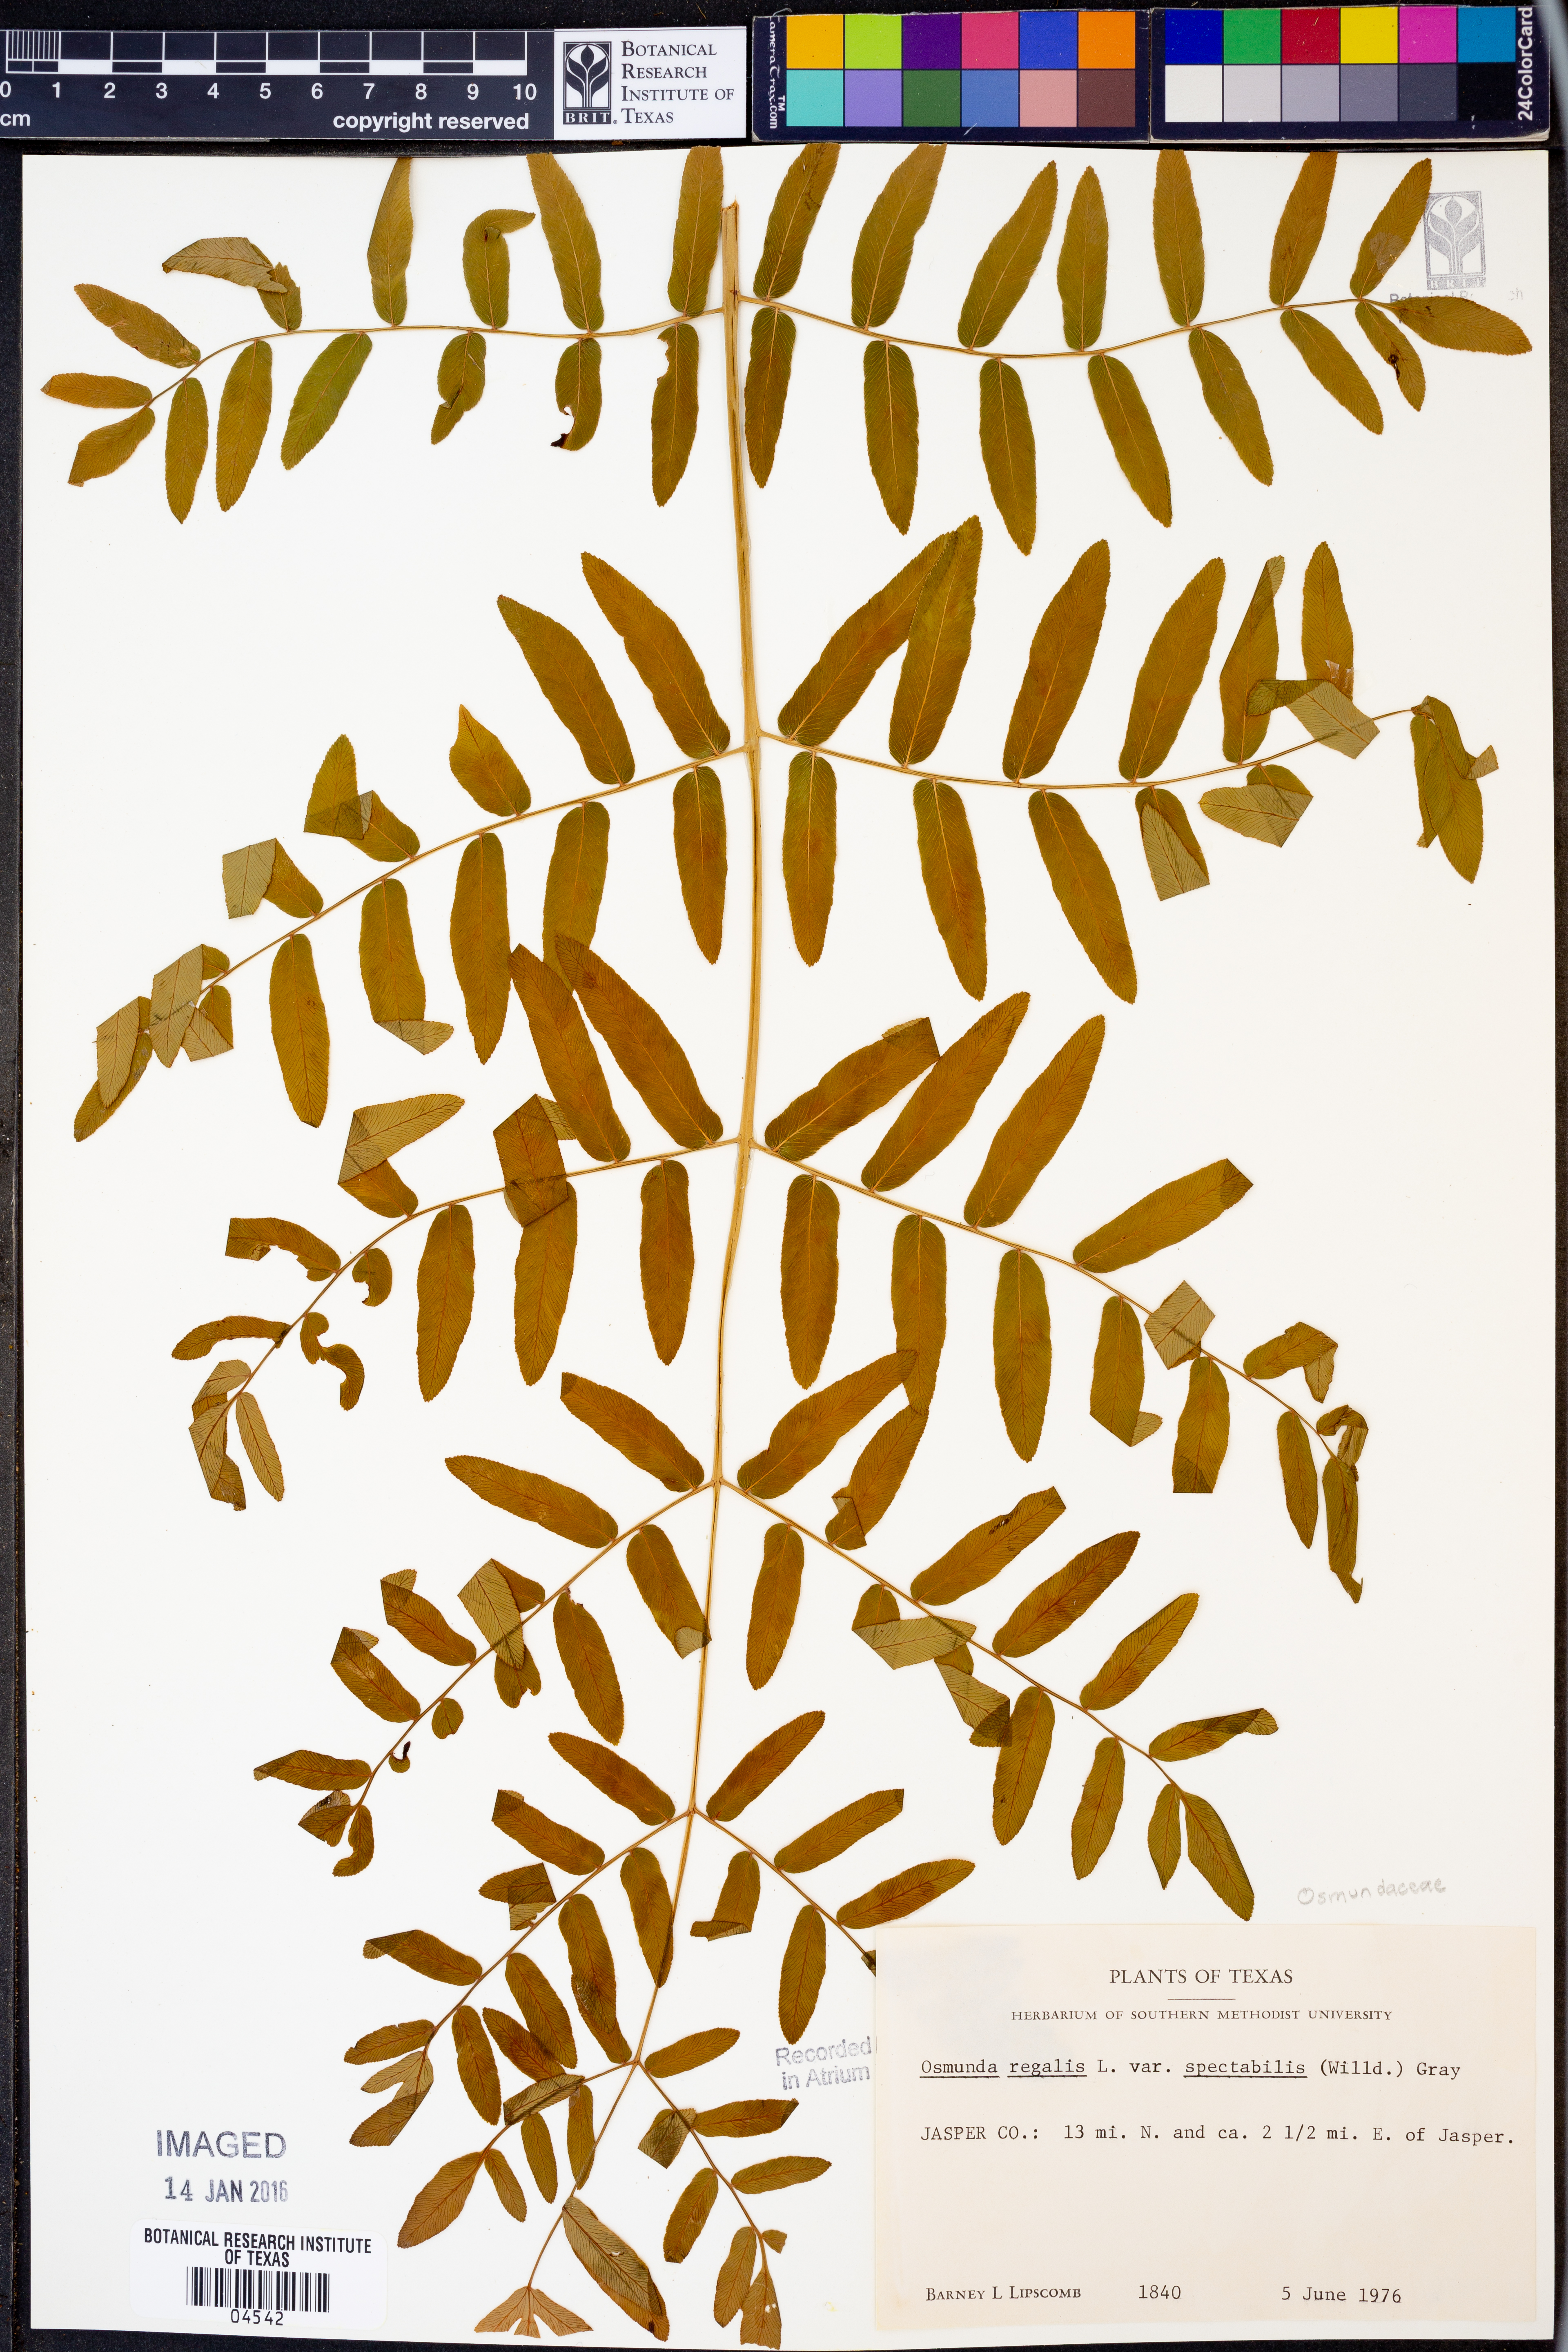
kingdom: Plantae
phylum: Tracheophyta
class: Polypodiopsida
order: Osmundales
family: Osmundaceae
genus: Osmunda
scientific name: Osmunda spectabilis
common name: American royal fern
